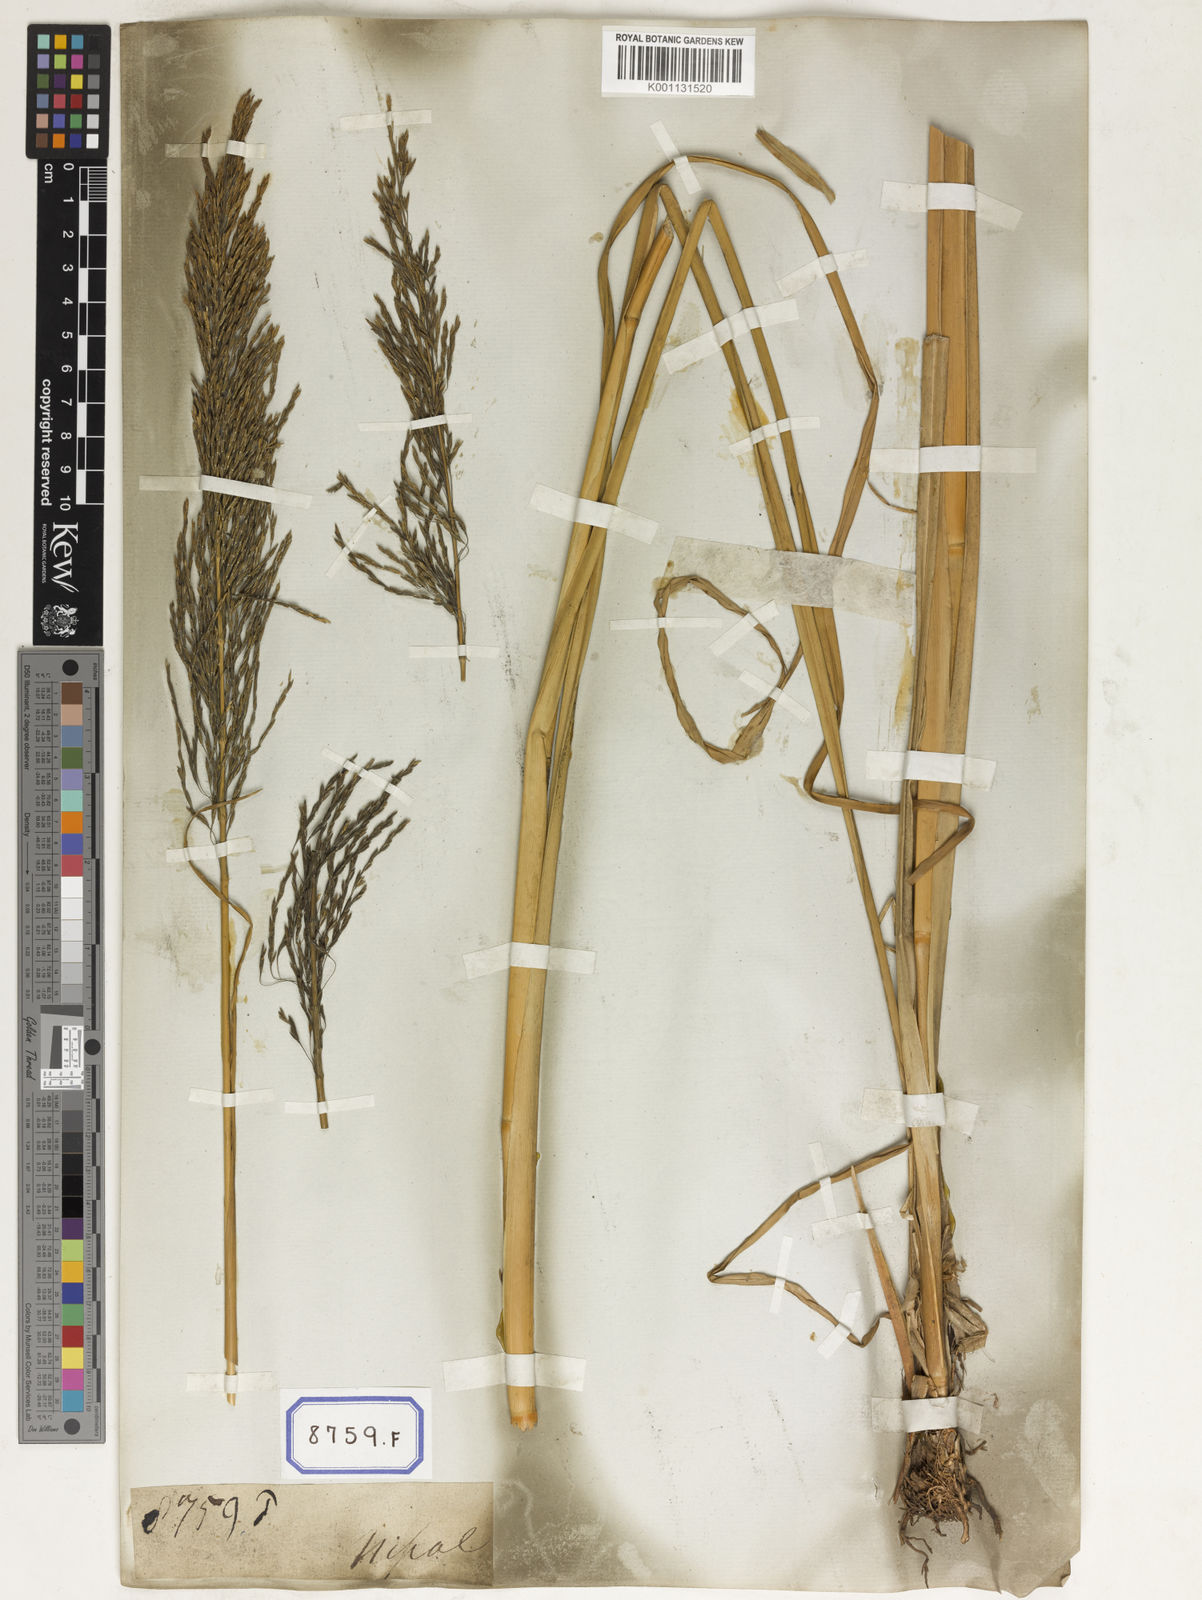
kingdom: Plantae
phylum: Tracheophyta
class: Liliopsida
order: Poales
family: Poaceae
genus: Chrysopogon
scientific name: Chrysopogon zizanioides
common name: False beardgrass
